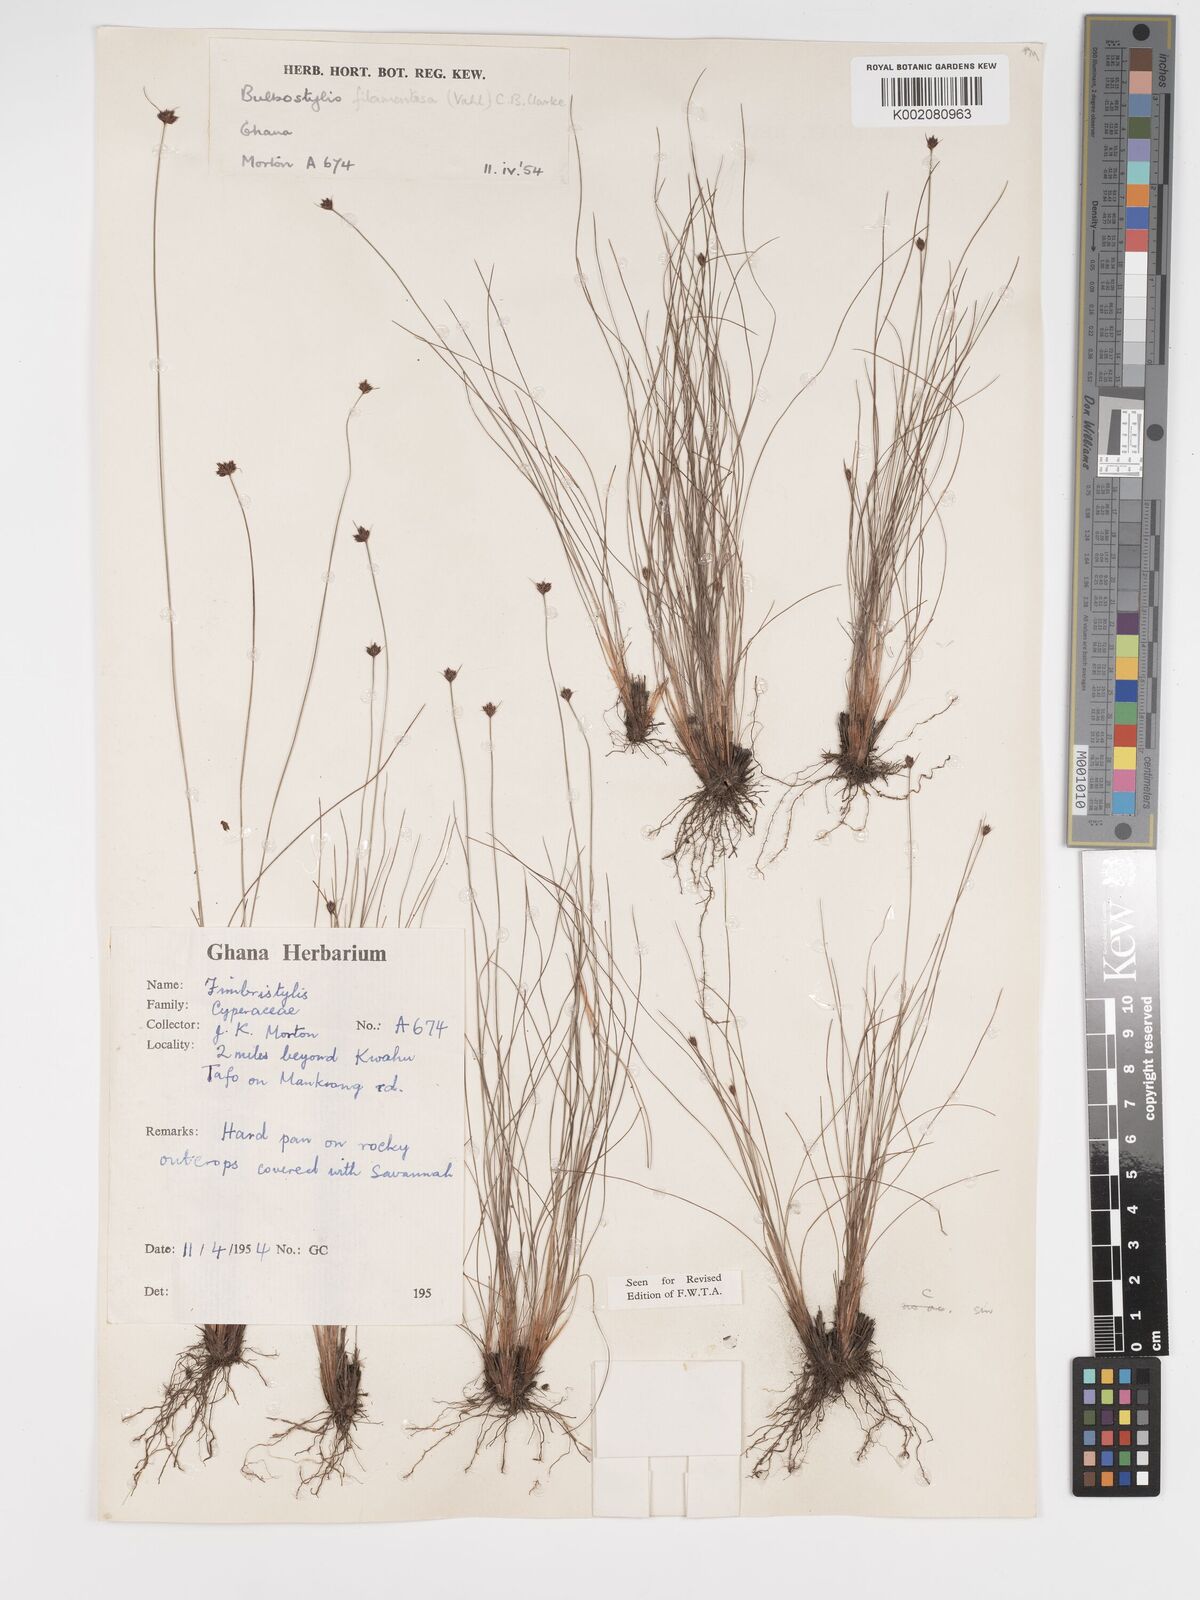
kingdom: Plantae
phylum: Tracheophyta
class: Liliopsida
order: Poales
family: Cyperaceae
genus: Bulbostylis
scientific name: Bulbostylis filamentosa
